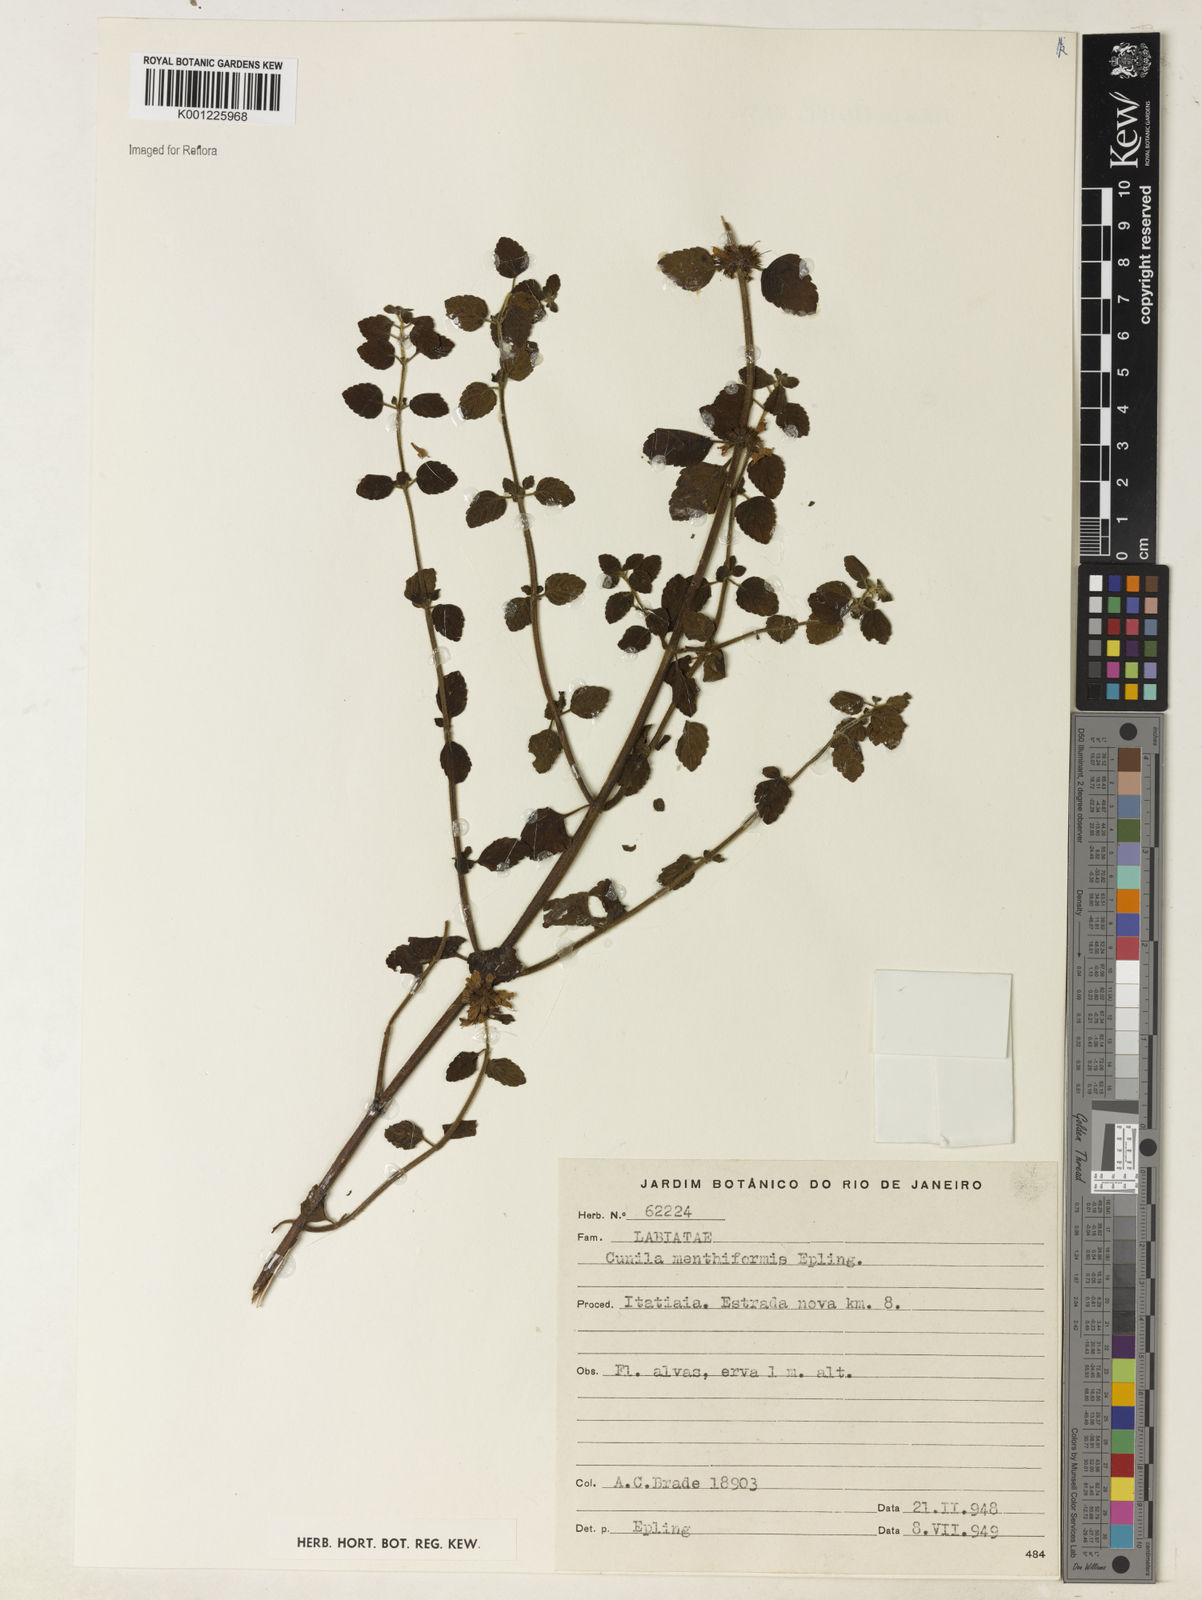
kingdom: Plantae
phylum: Tracheophyta
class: Magnoliopsida
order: Lamiales
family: Lamiaceae
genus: Cunila
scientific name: Cunila menthiformis
